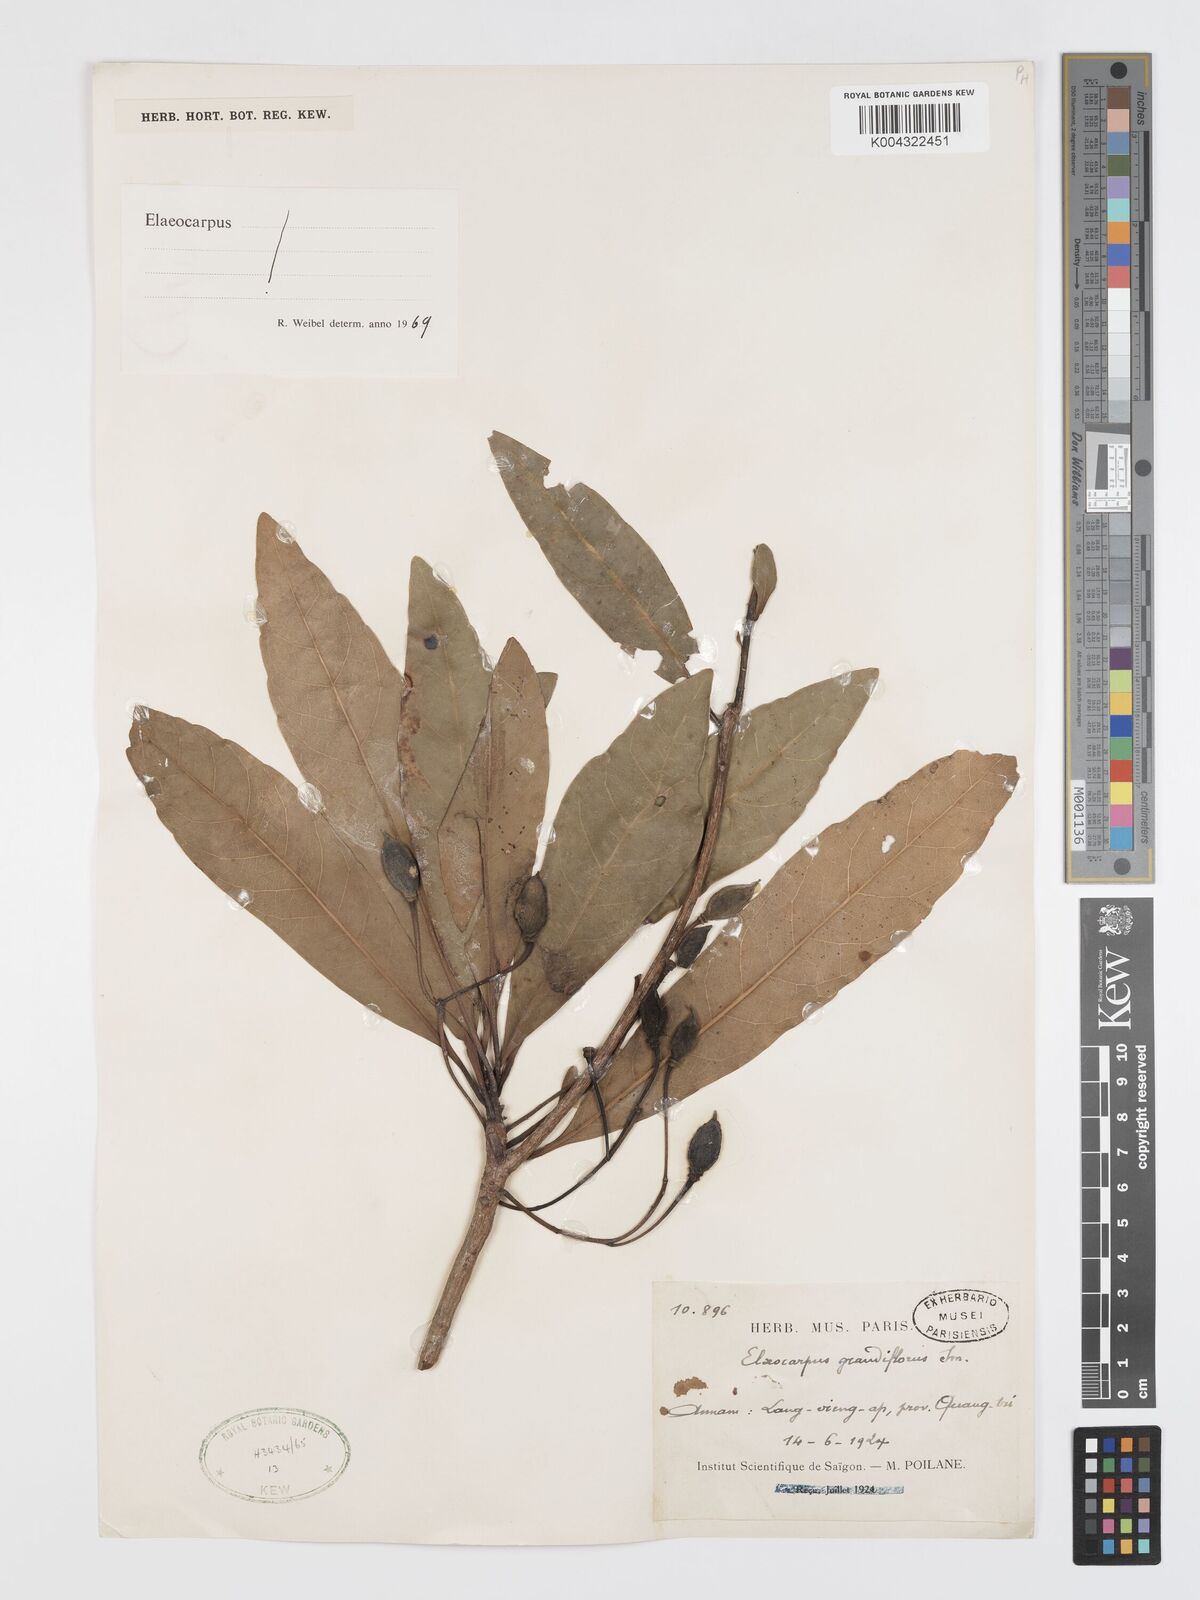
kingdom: Plantae
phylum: Tracheophyta
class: Magnoliopsida
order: Oxalidales
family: Elaeocarpaceae
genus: Elaeocarpus
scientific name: Elaeocarpus grandiflorus
